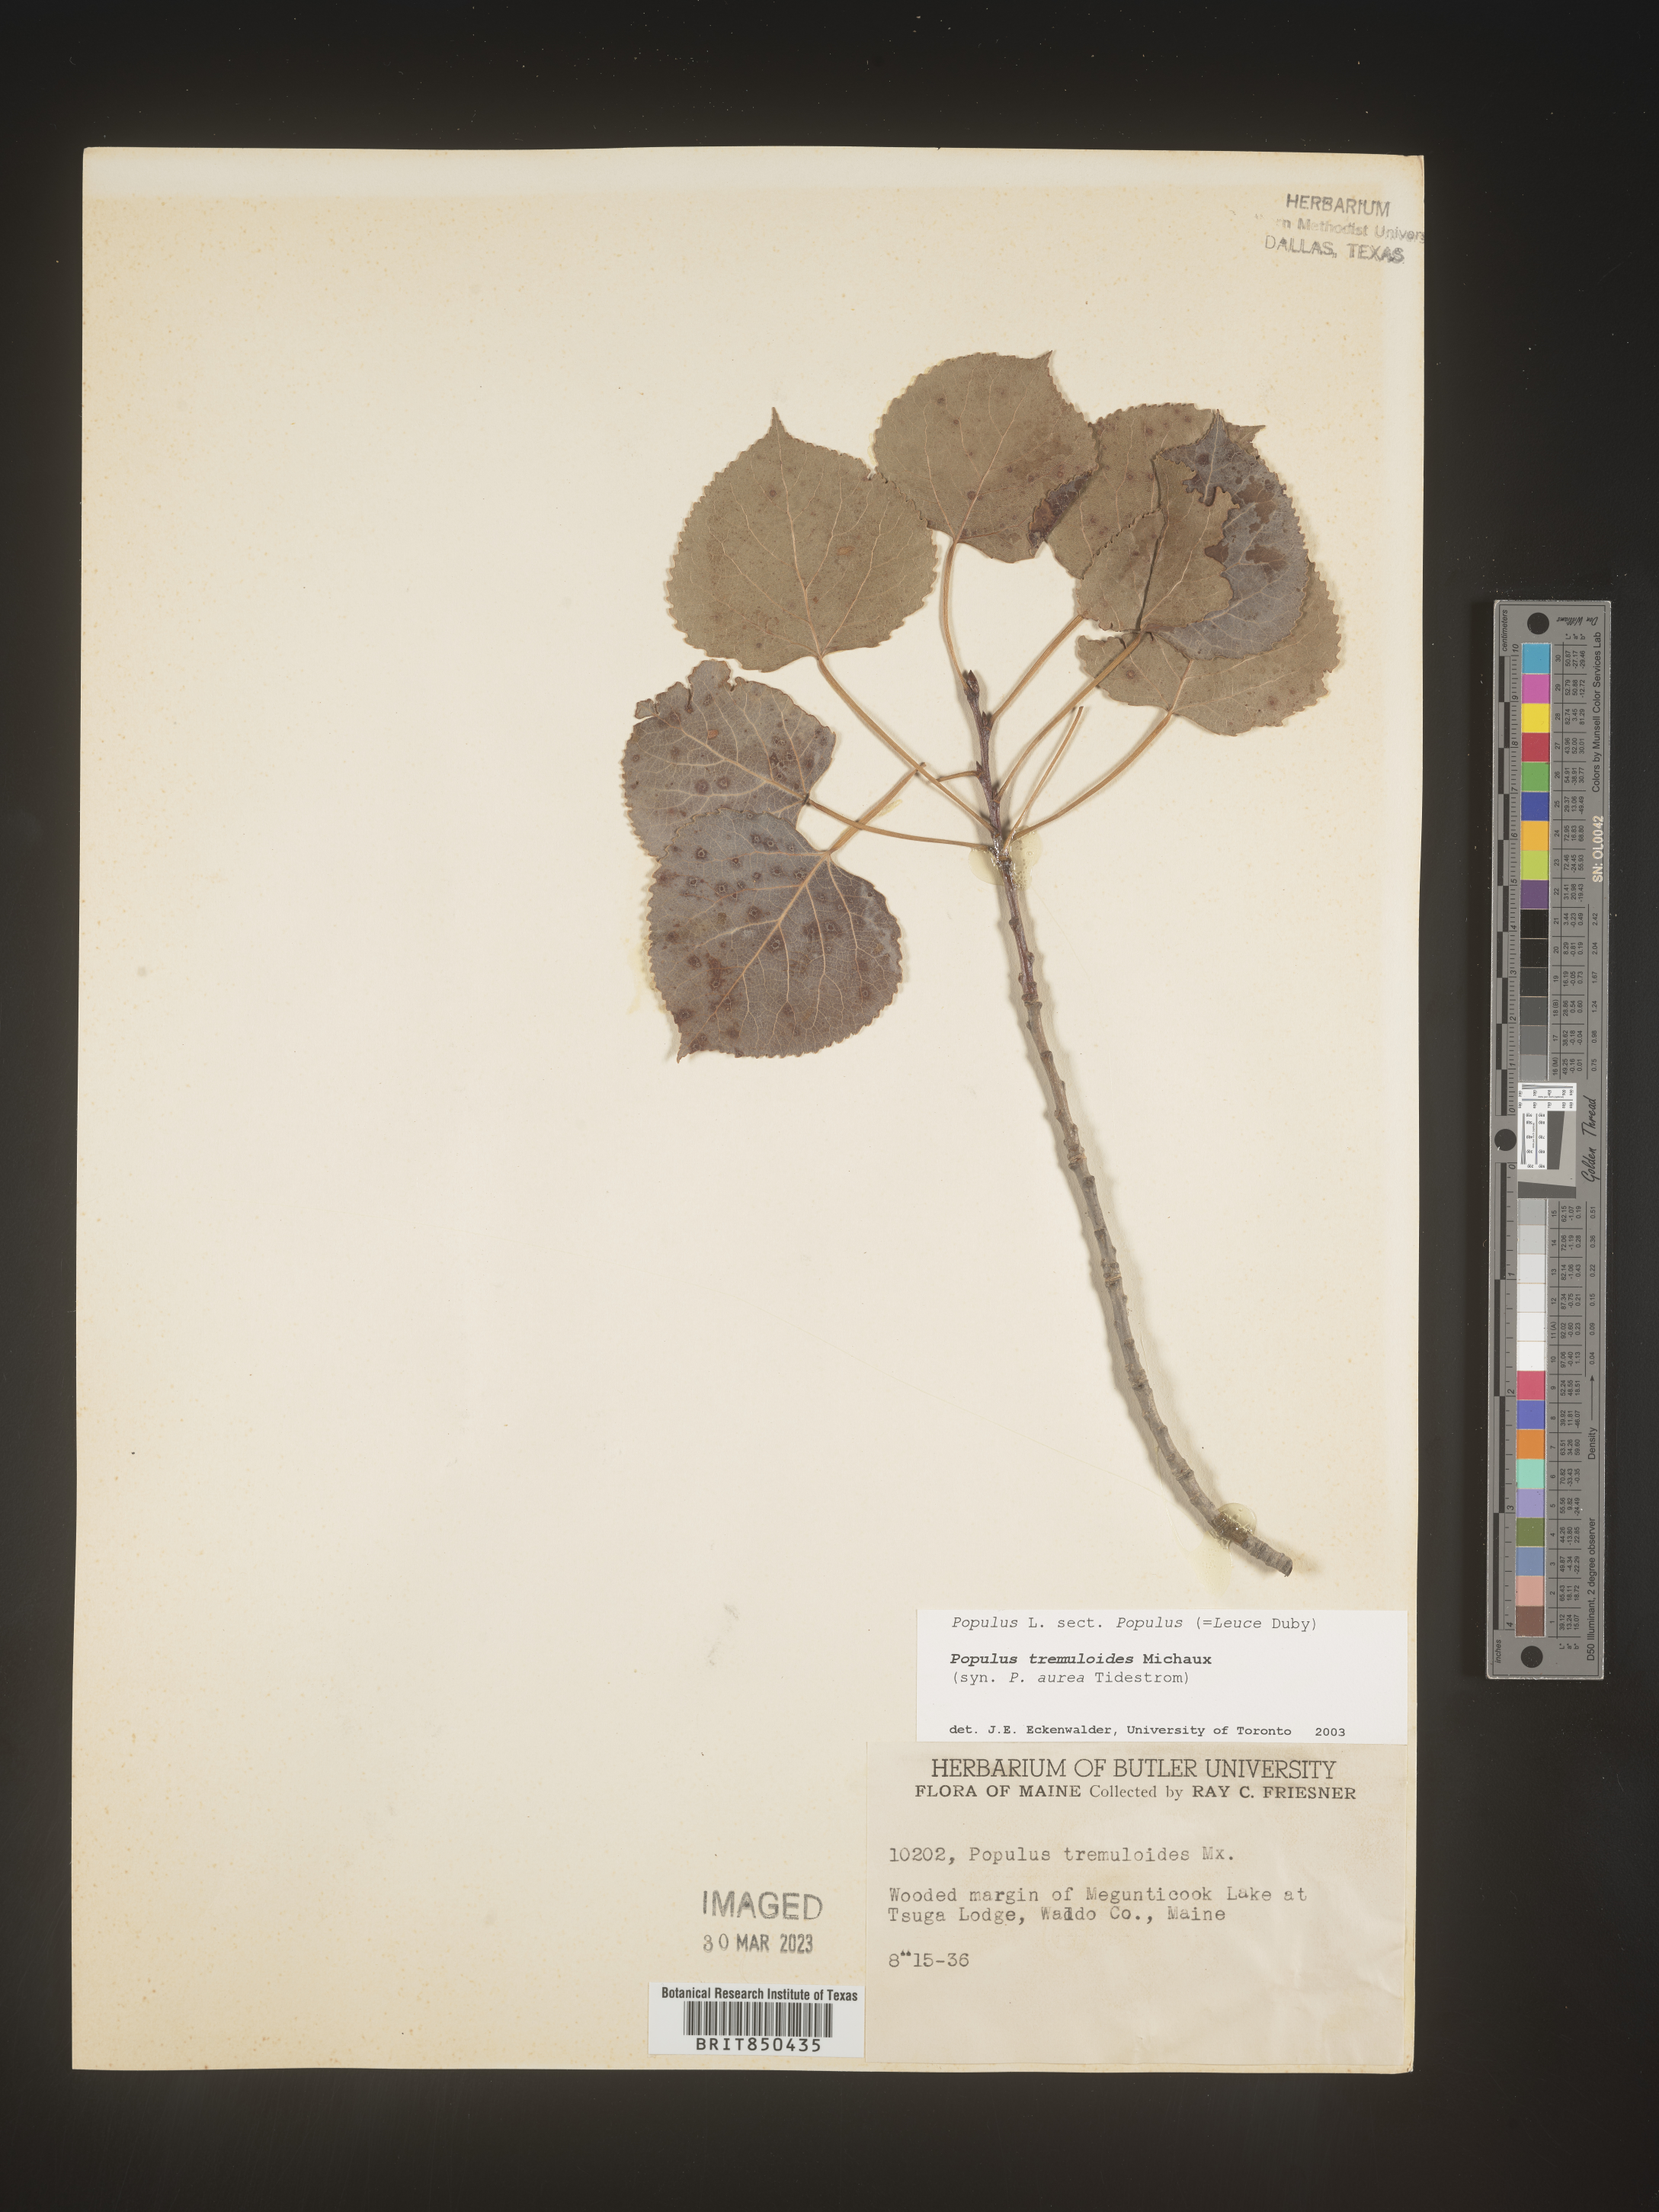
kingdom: Plantae
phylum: Tracheophyta
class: Magnoliopsida
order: Malpighiales
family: Salicaceae
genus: Populus
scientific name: Populus tremuloides
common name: Quaking aspen
